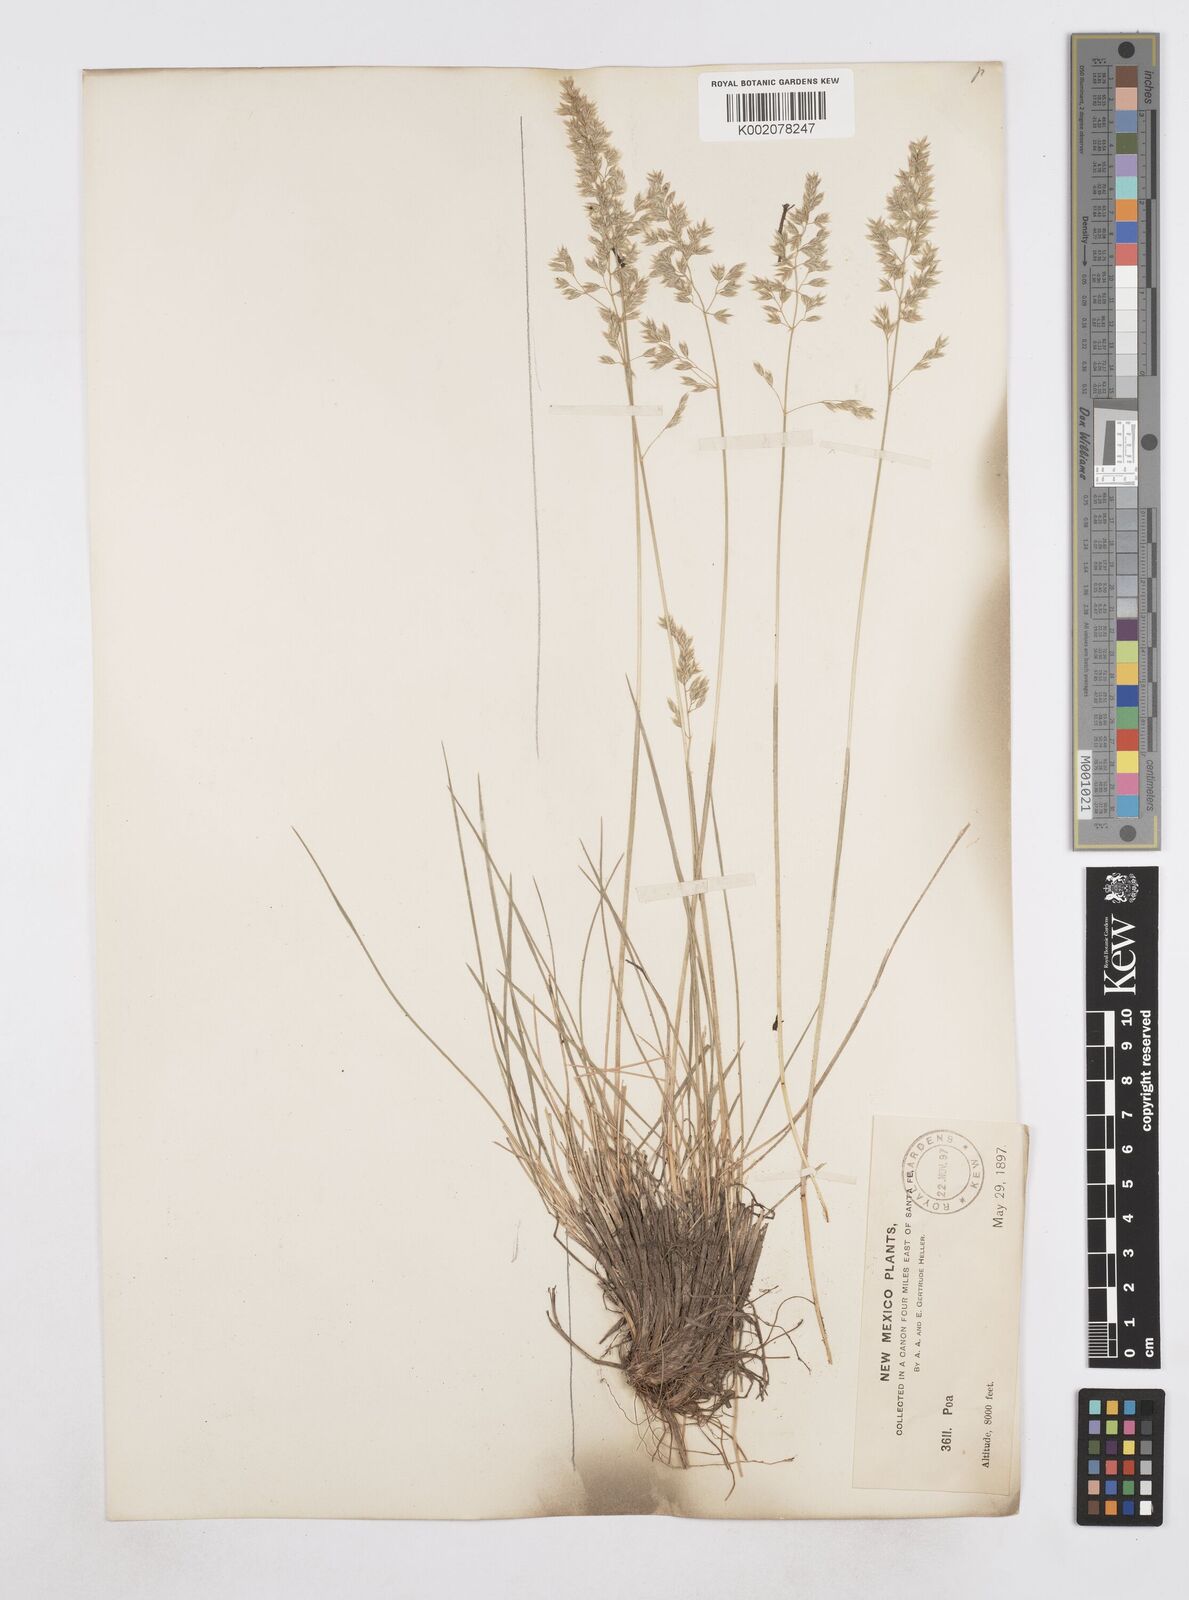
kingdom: Plantae
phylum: Tracheophyta
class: Liliopsida
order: Poales
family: Poaceae
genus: Poa
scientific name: Poa
